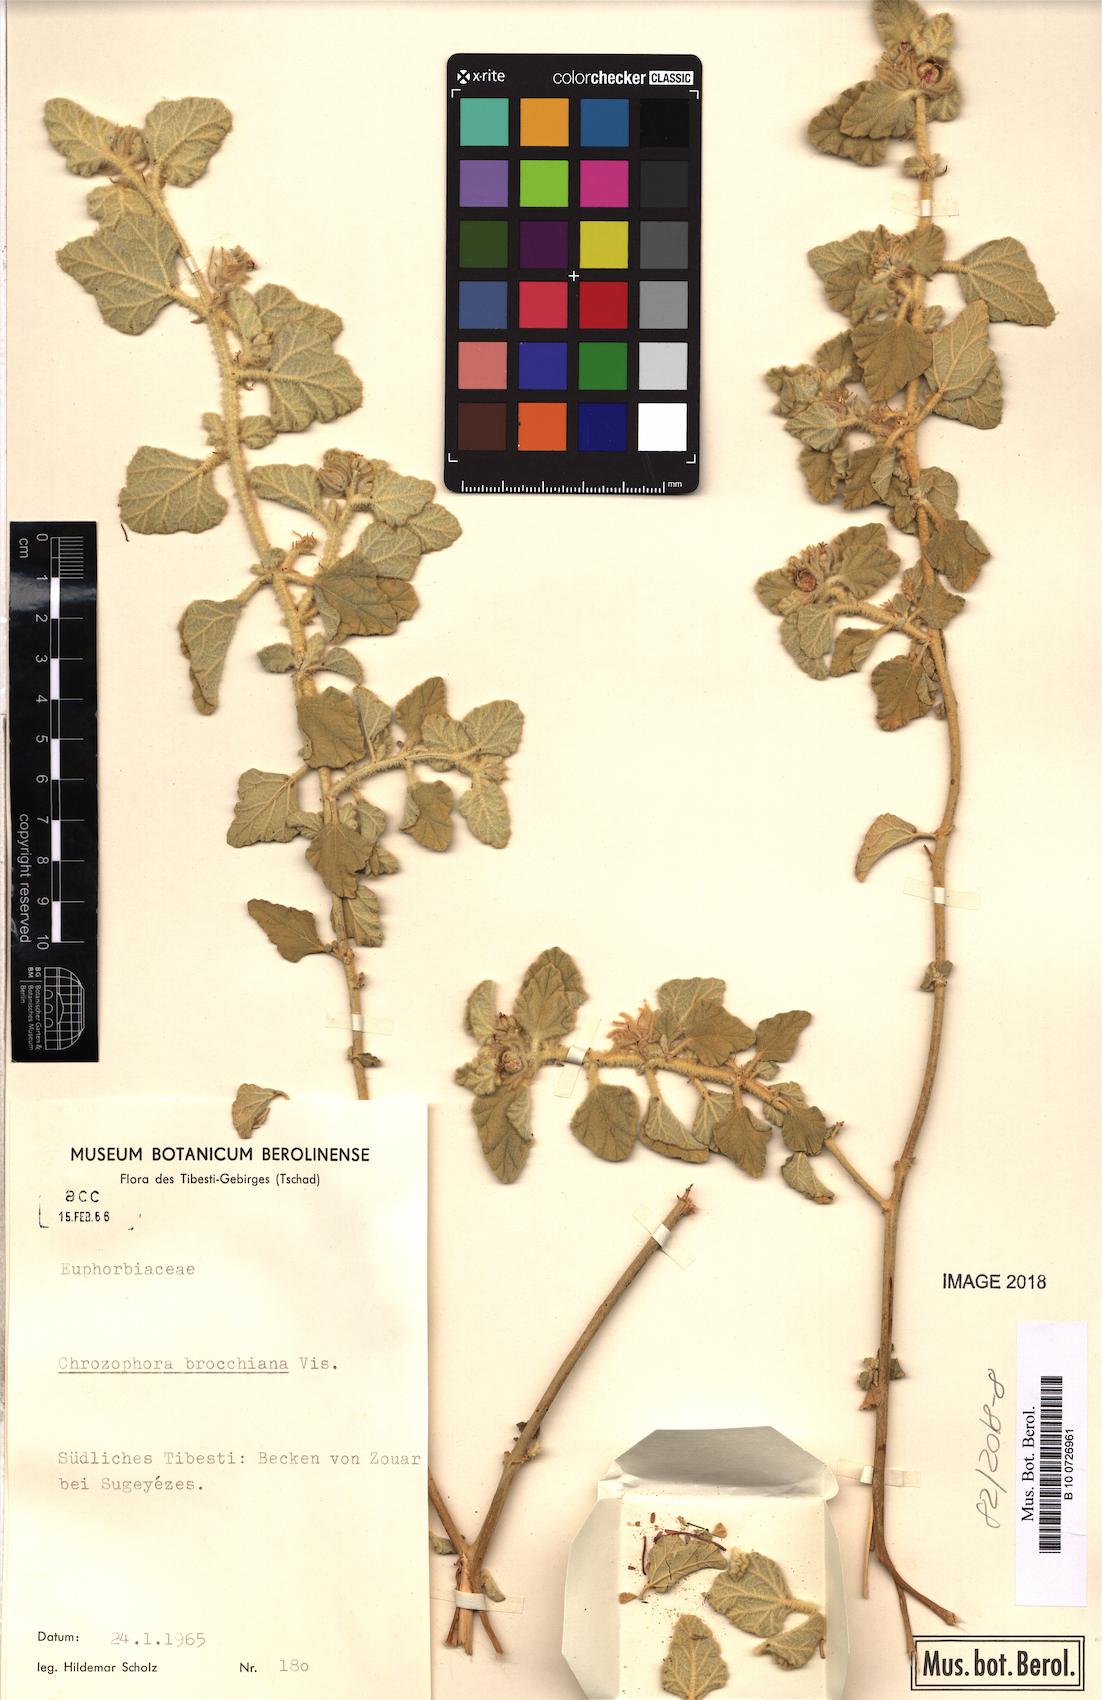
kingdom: Plantae
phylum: Tracheophyta
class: Magnoliopsida
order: Malpighiales
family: Euphorbiaceae
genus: Chrozophora
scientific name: Chrozophora brocchiana
